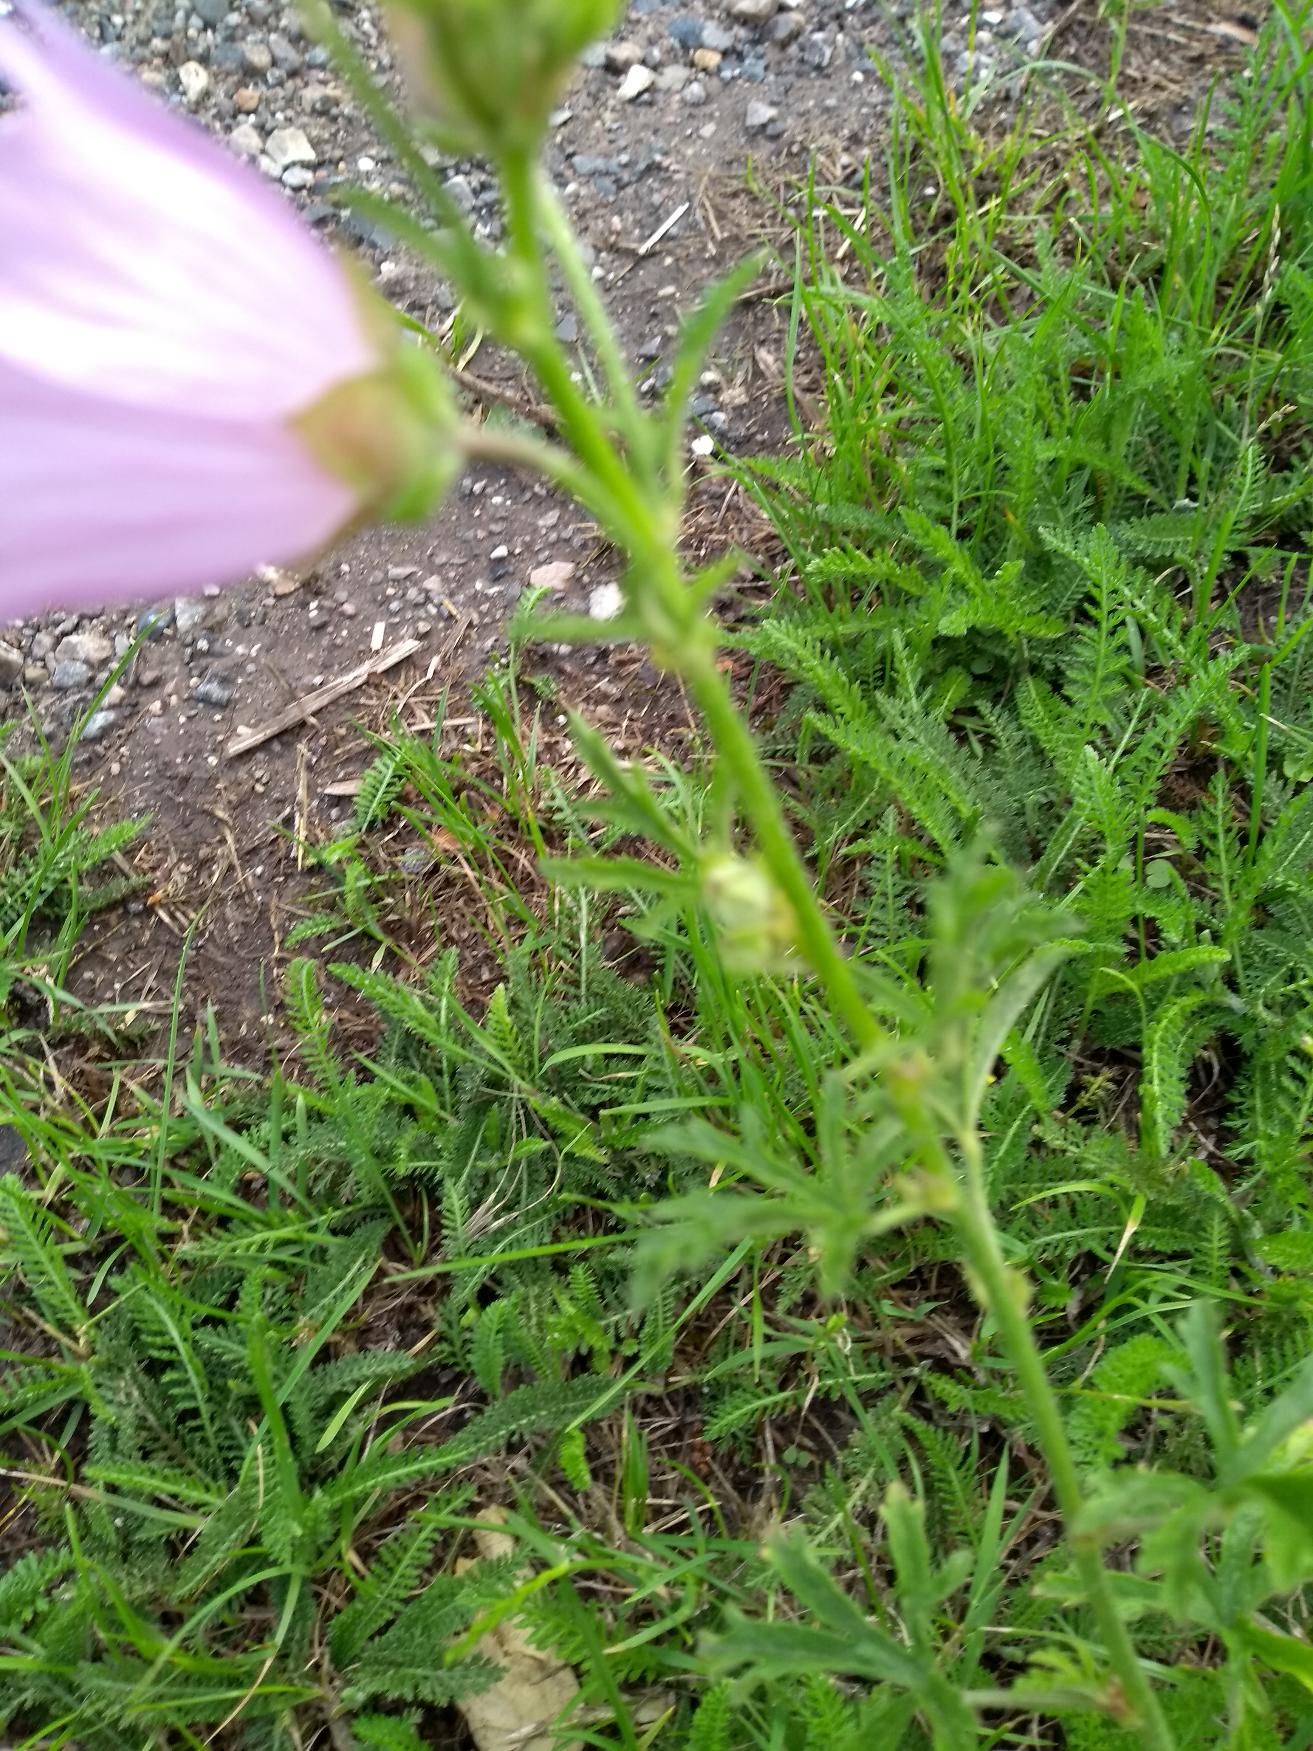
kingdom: Plantae
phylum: Tracheophyta
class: Magnoliopsida
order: Malvales
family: Malvaceae
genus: Malva
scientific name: Malva alcea
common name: Rosen-katost
